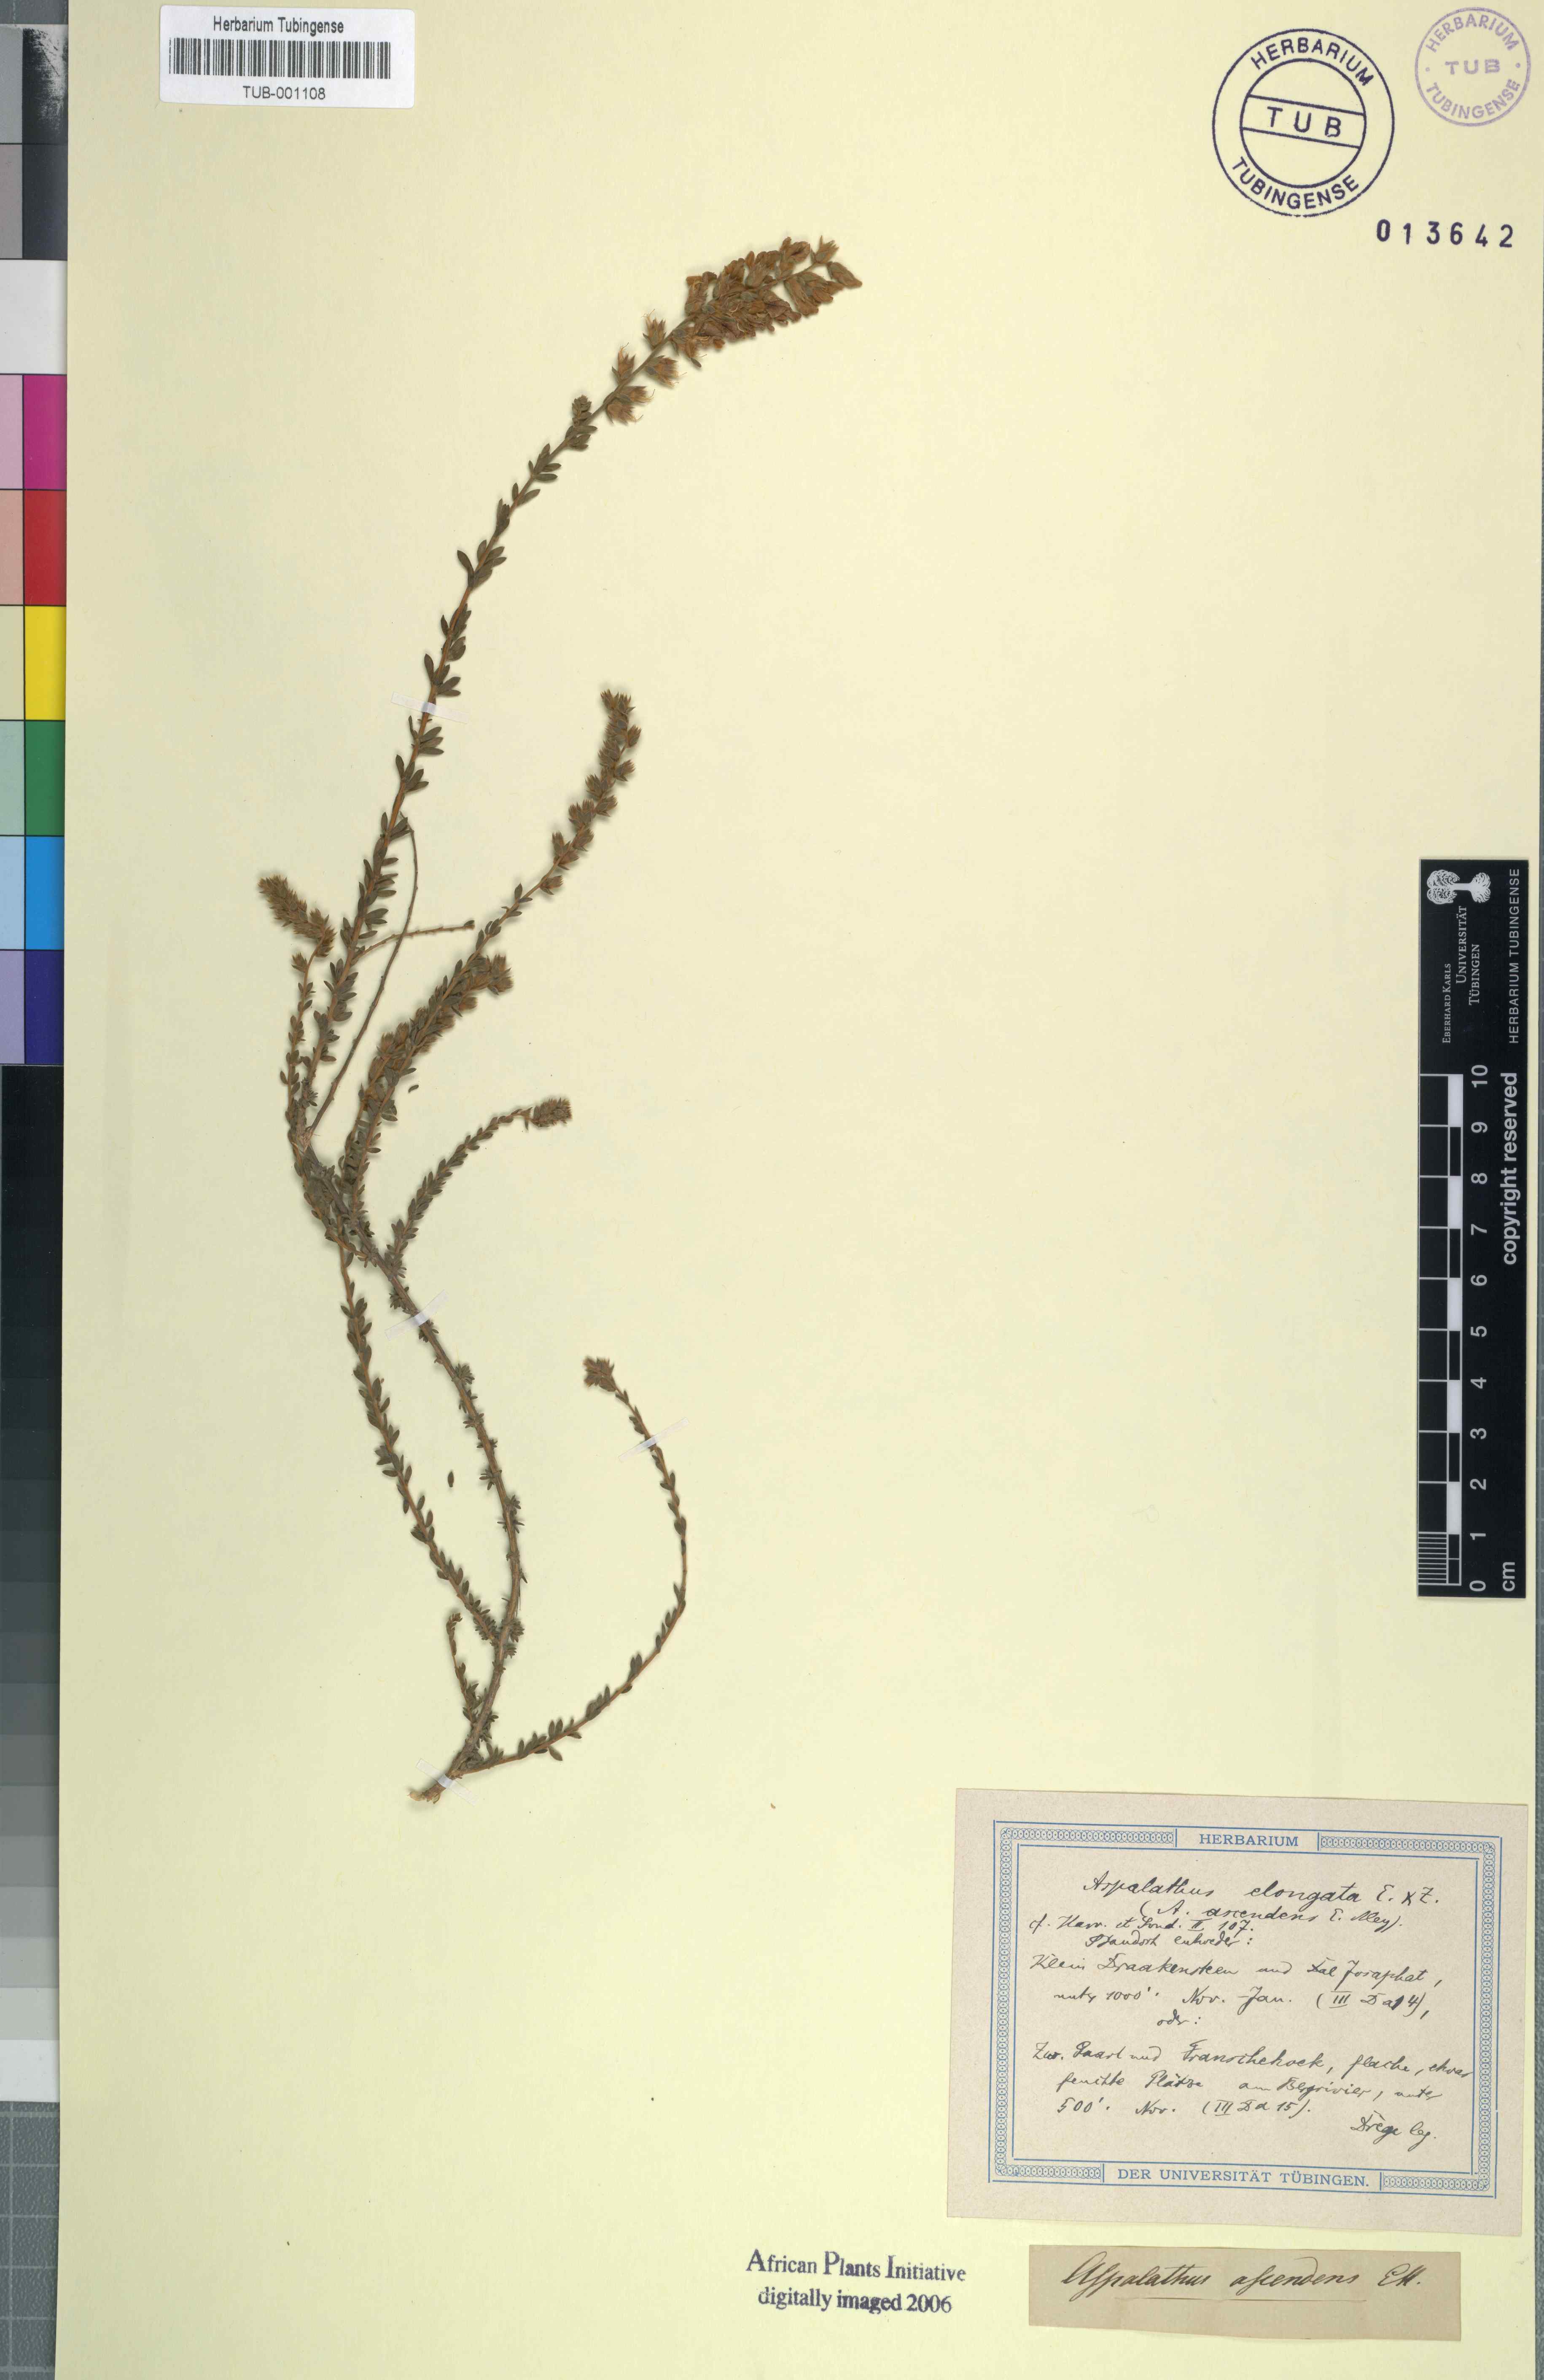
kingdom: Plantae
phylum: Tracheophyta
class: Magnoliopsida
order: Fabales
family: Fabaceae
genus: Aspalathus
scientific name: Aspalathus opaca
